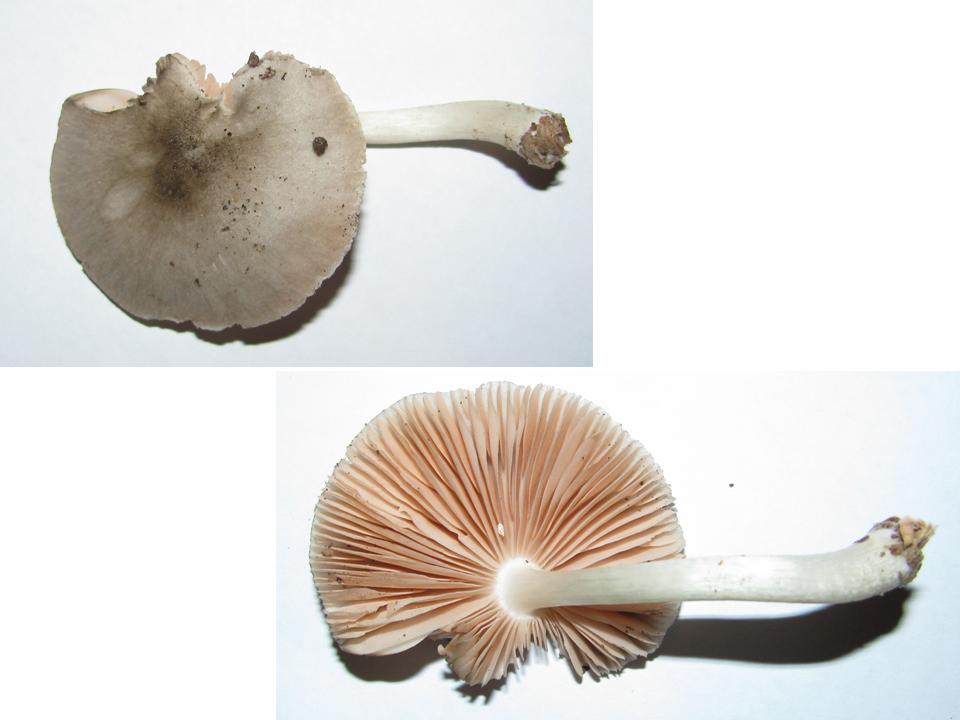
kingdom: Fungi
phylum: Basidiomycota
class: Agaricomycetes
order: Agaricales
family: Pluteaceae
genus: Pluteus
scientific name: Pluteus salicinus
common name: stiv skærmhat
